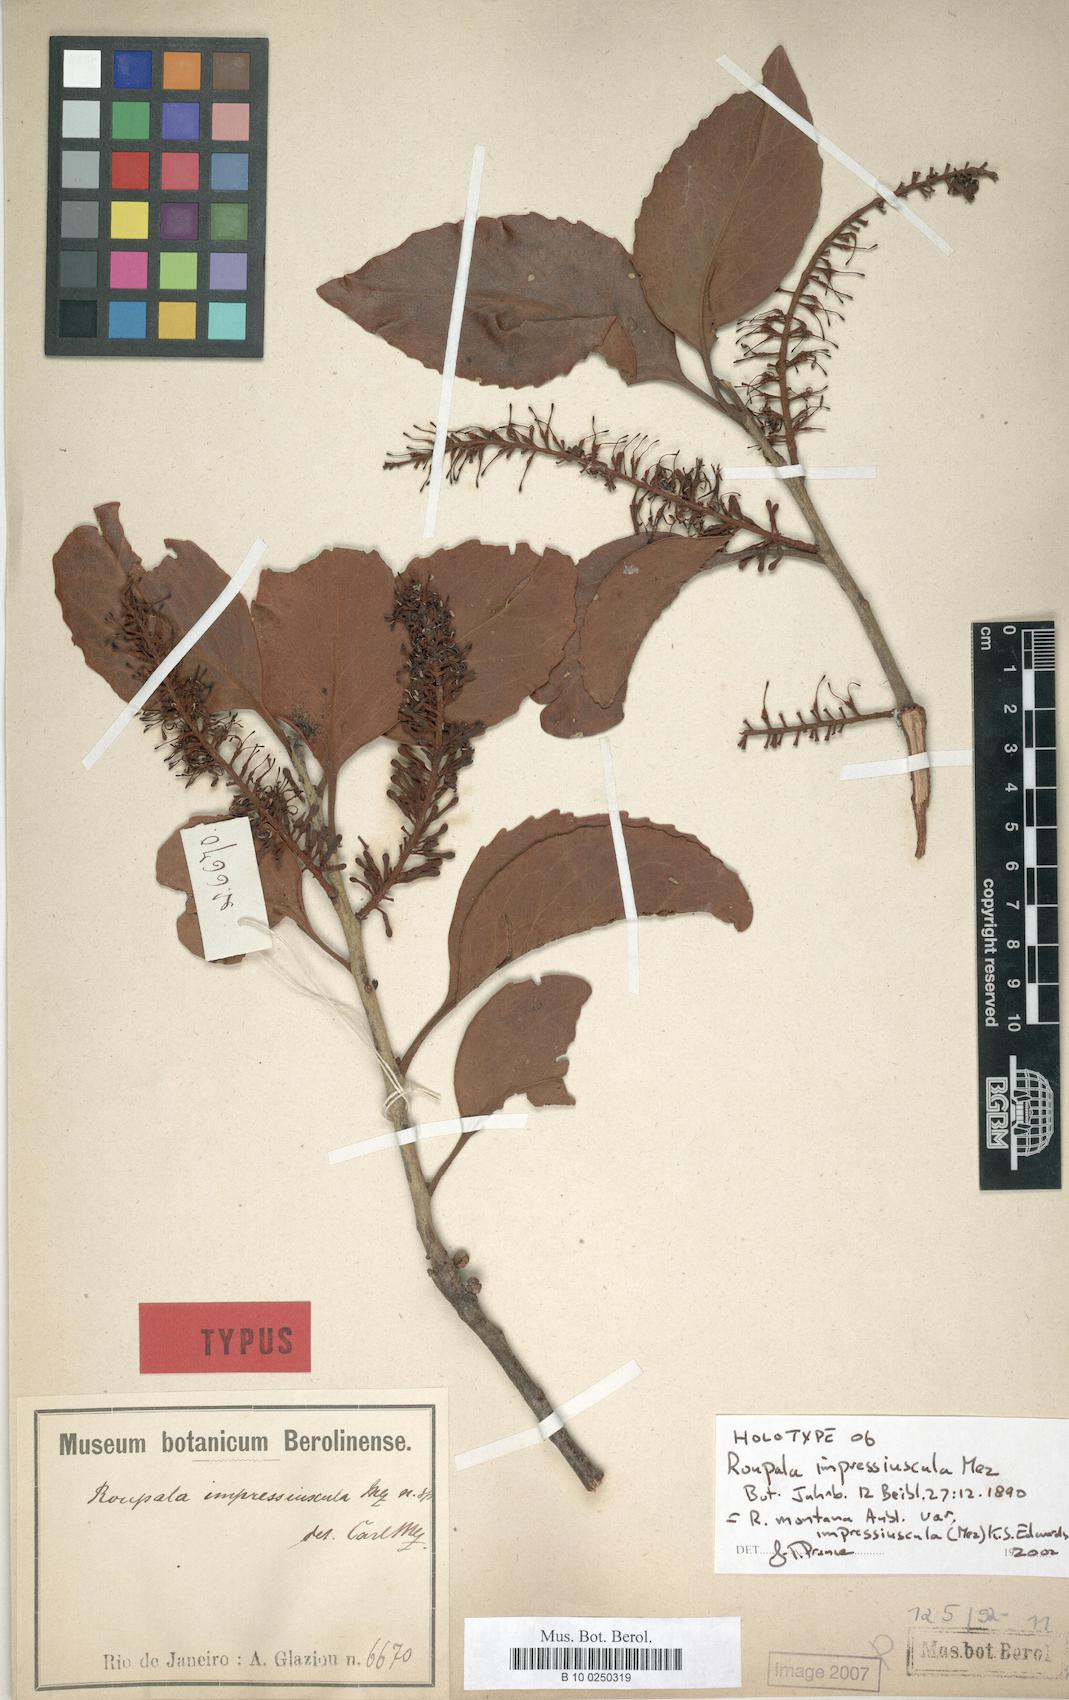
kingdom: Plantae
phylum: Tracheophyta
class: Magnoliopsida
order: Proteales
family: Proteaceae
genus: Roupala
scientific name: Roupala montana
